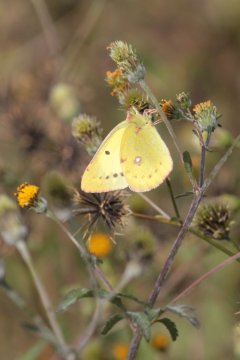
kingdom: Animalia
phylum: Arthropoda
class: Insecta
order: Lepidoptera
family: Pieridae
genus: Colias
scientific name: Colias poliographus
